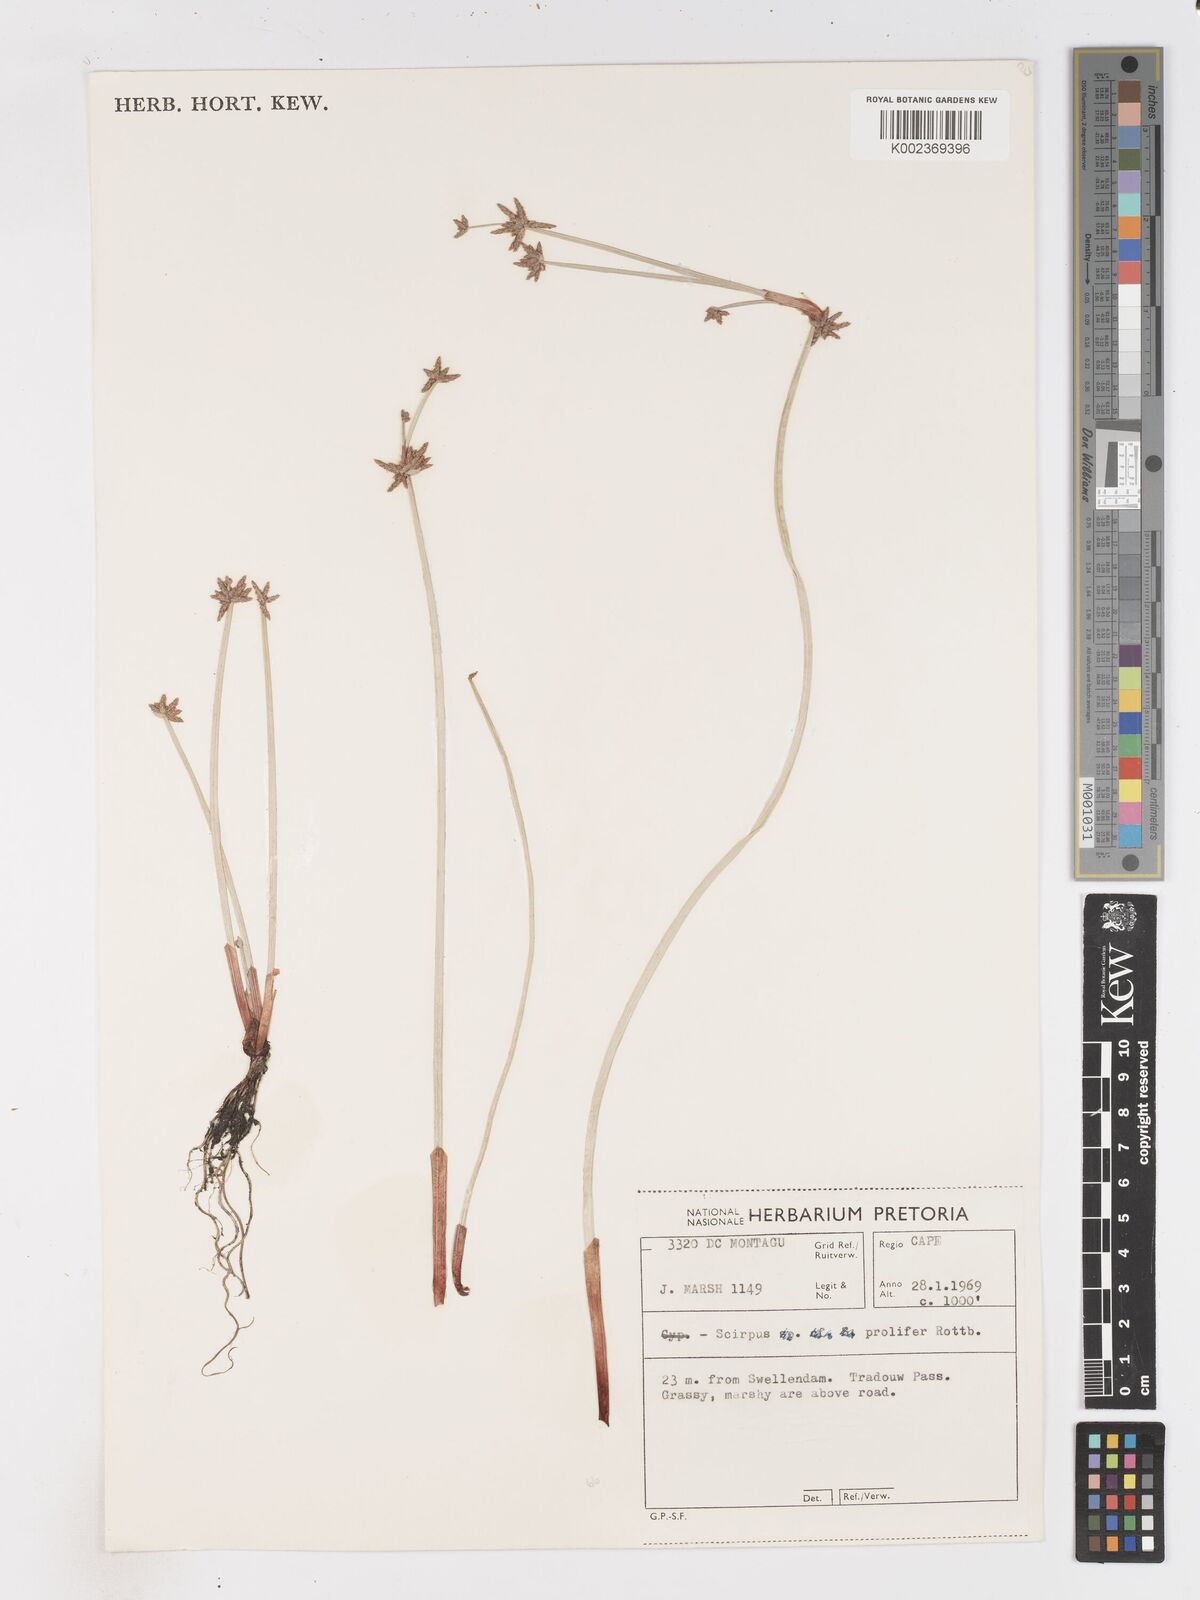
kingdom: Plantae
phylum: Tracheophyta
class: Liliopsida
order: Poales
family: Cyperaceae
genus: Isolepis
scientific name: Isolepis prolifera
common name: Proliferating bulrush
